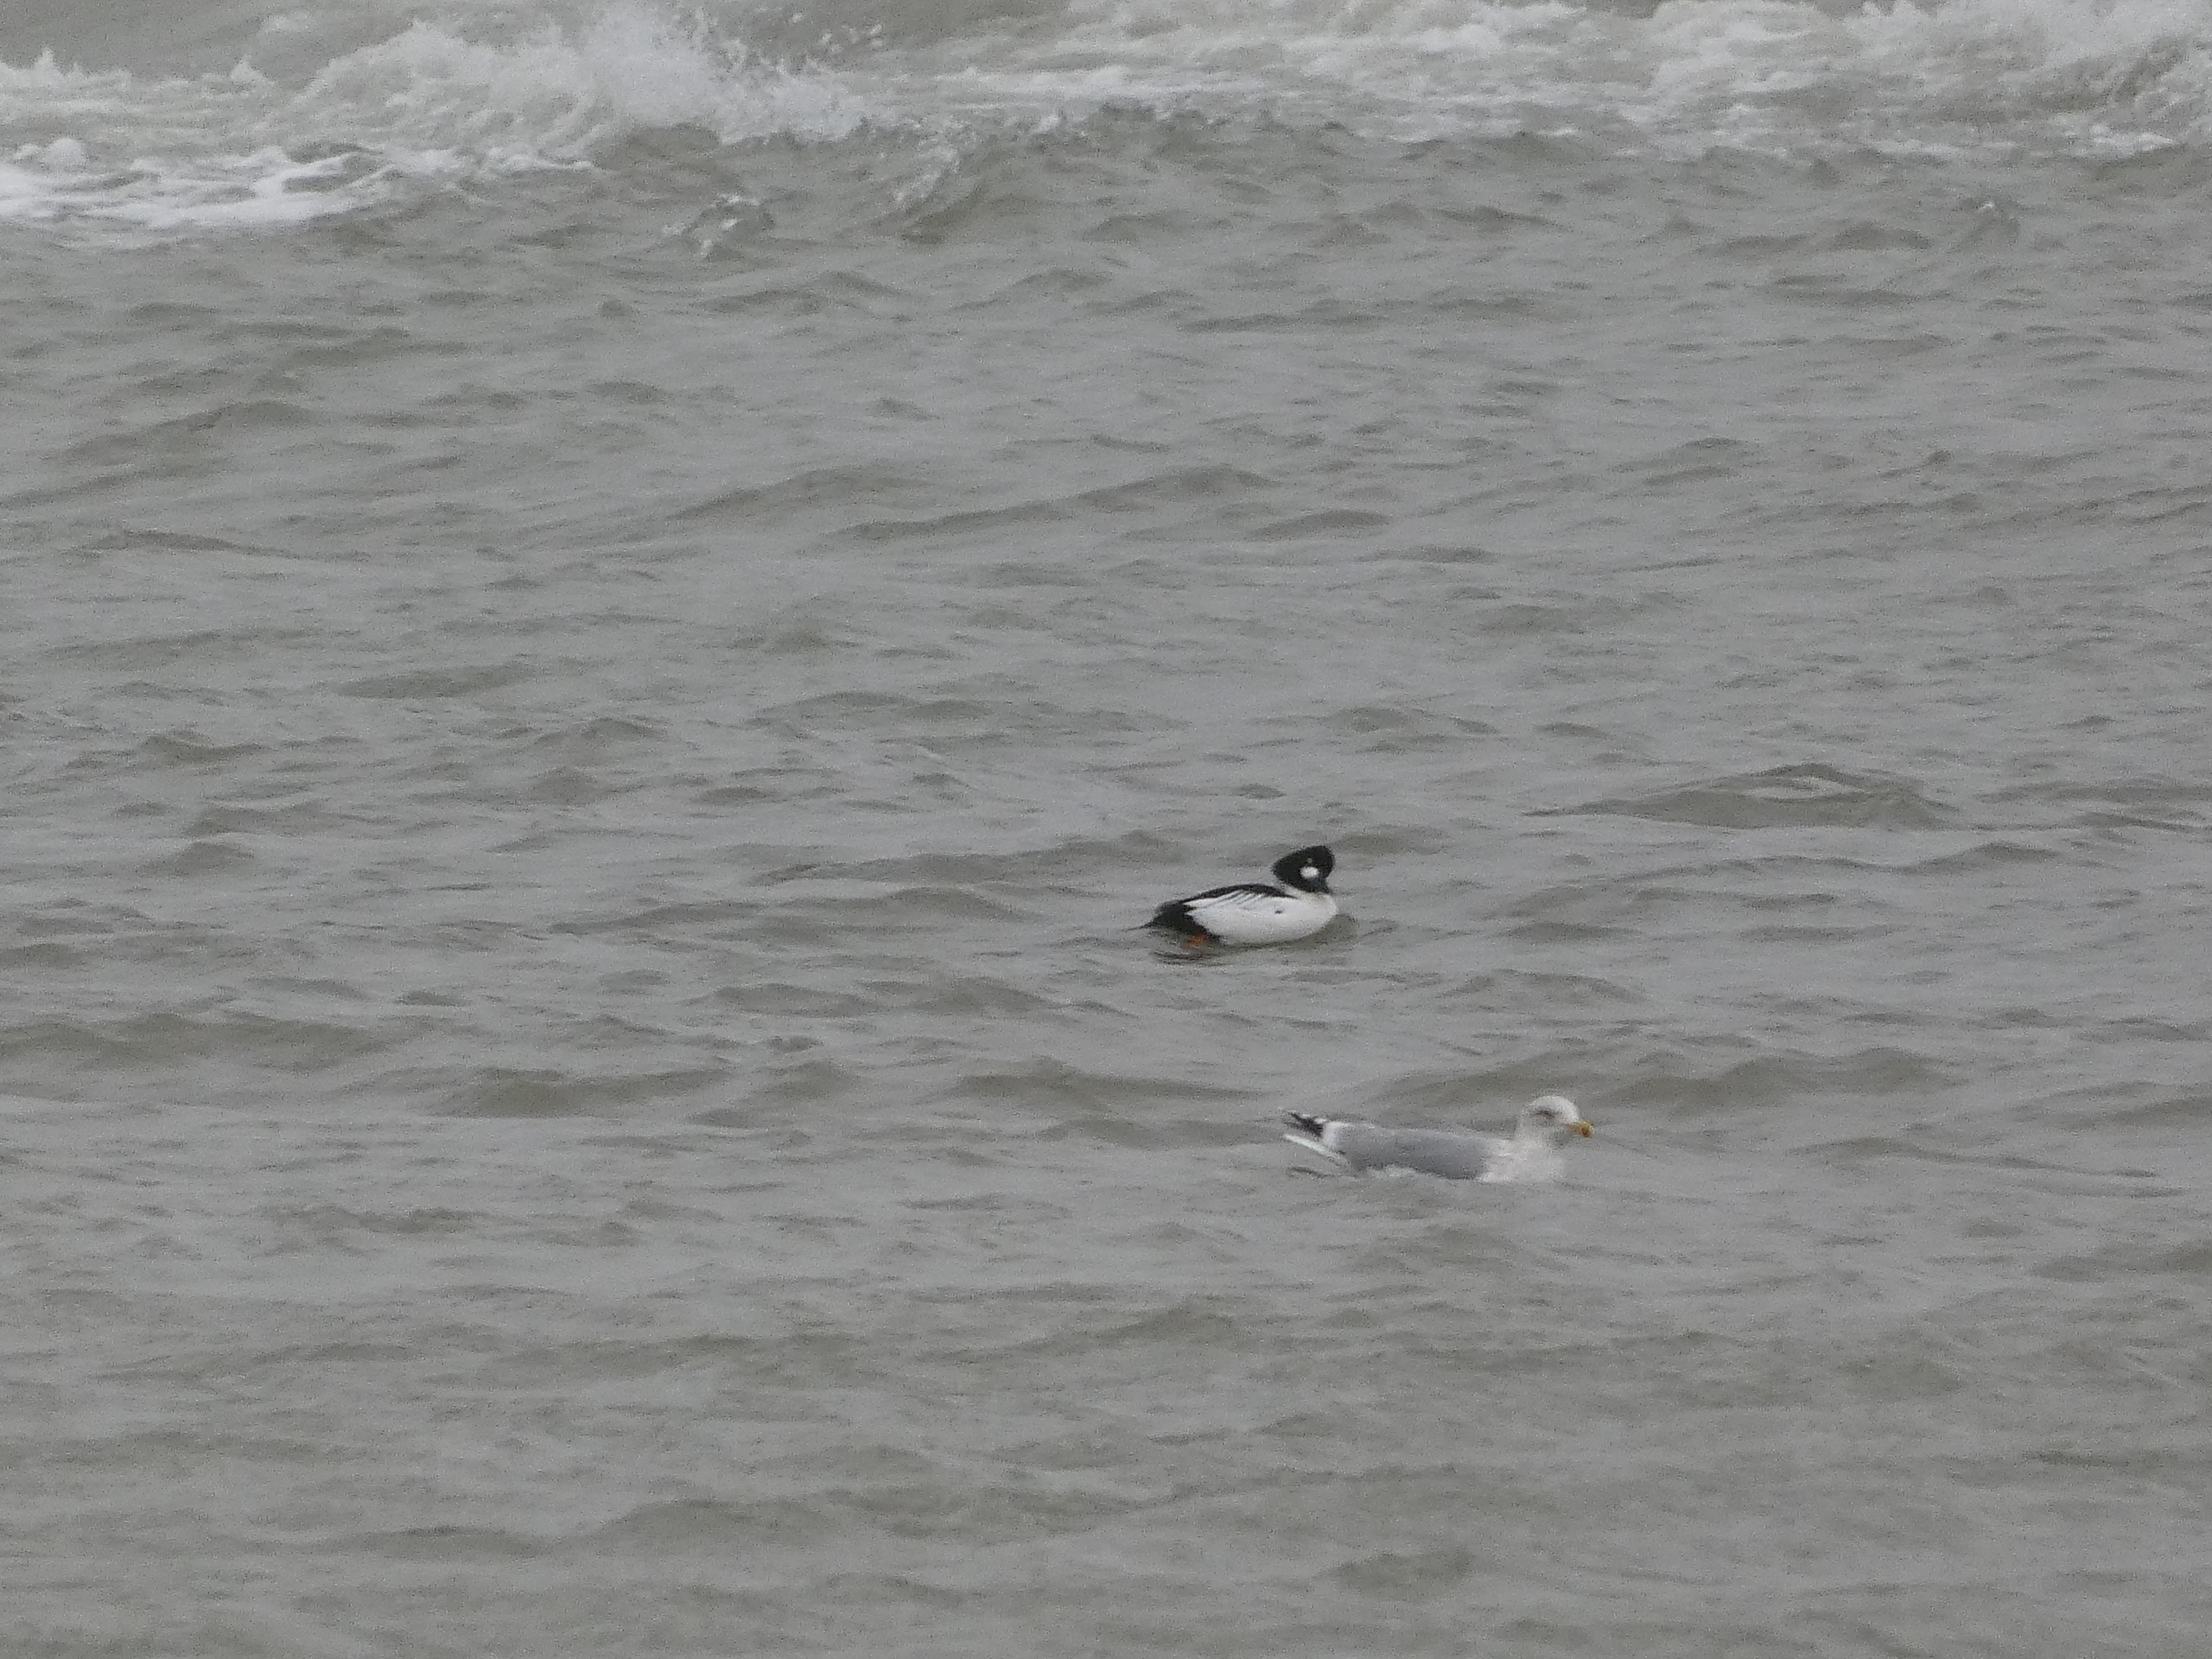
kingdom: Animalia
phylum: Chordata
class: Aves
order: Anseriformes
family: Anatidae
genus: Bucephala
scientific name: Bucephala clangula
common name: Hvinand
